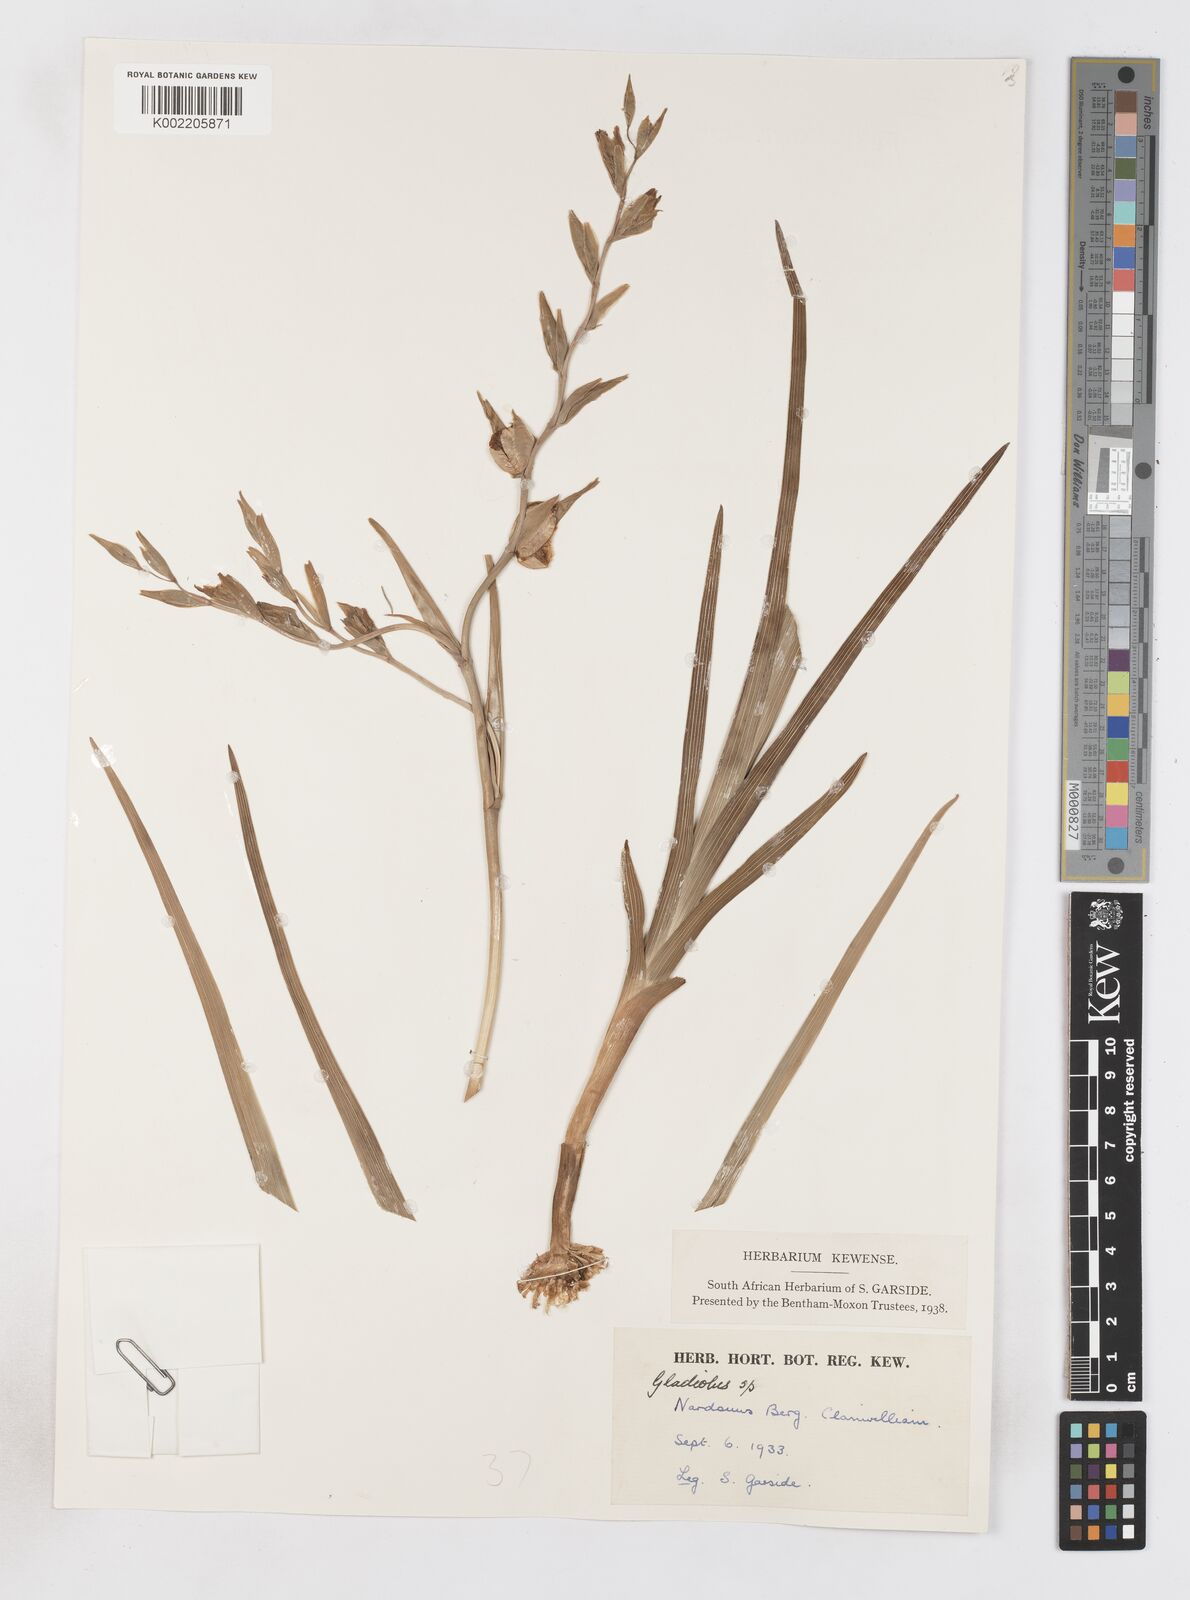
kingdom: Plantae
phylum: Tracheophyta
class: Liliopsida
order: Asparagales
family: Iridaceae
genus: Gladiolus
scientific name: Gladiolus orchidiflorus
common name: Gray kalkoentjie
